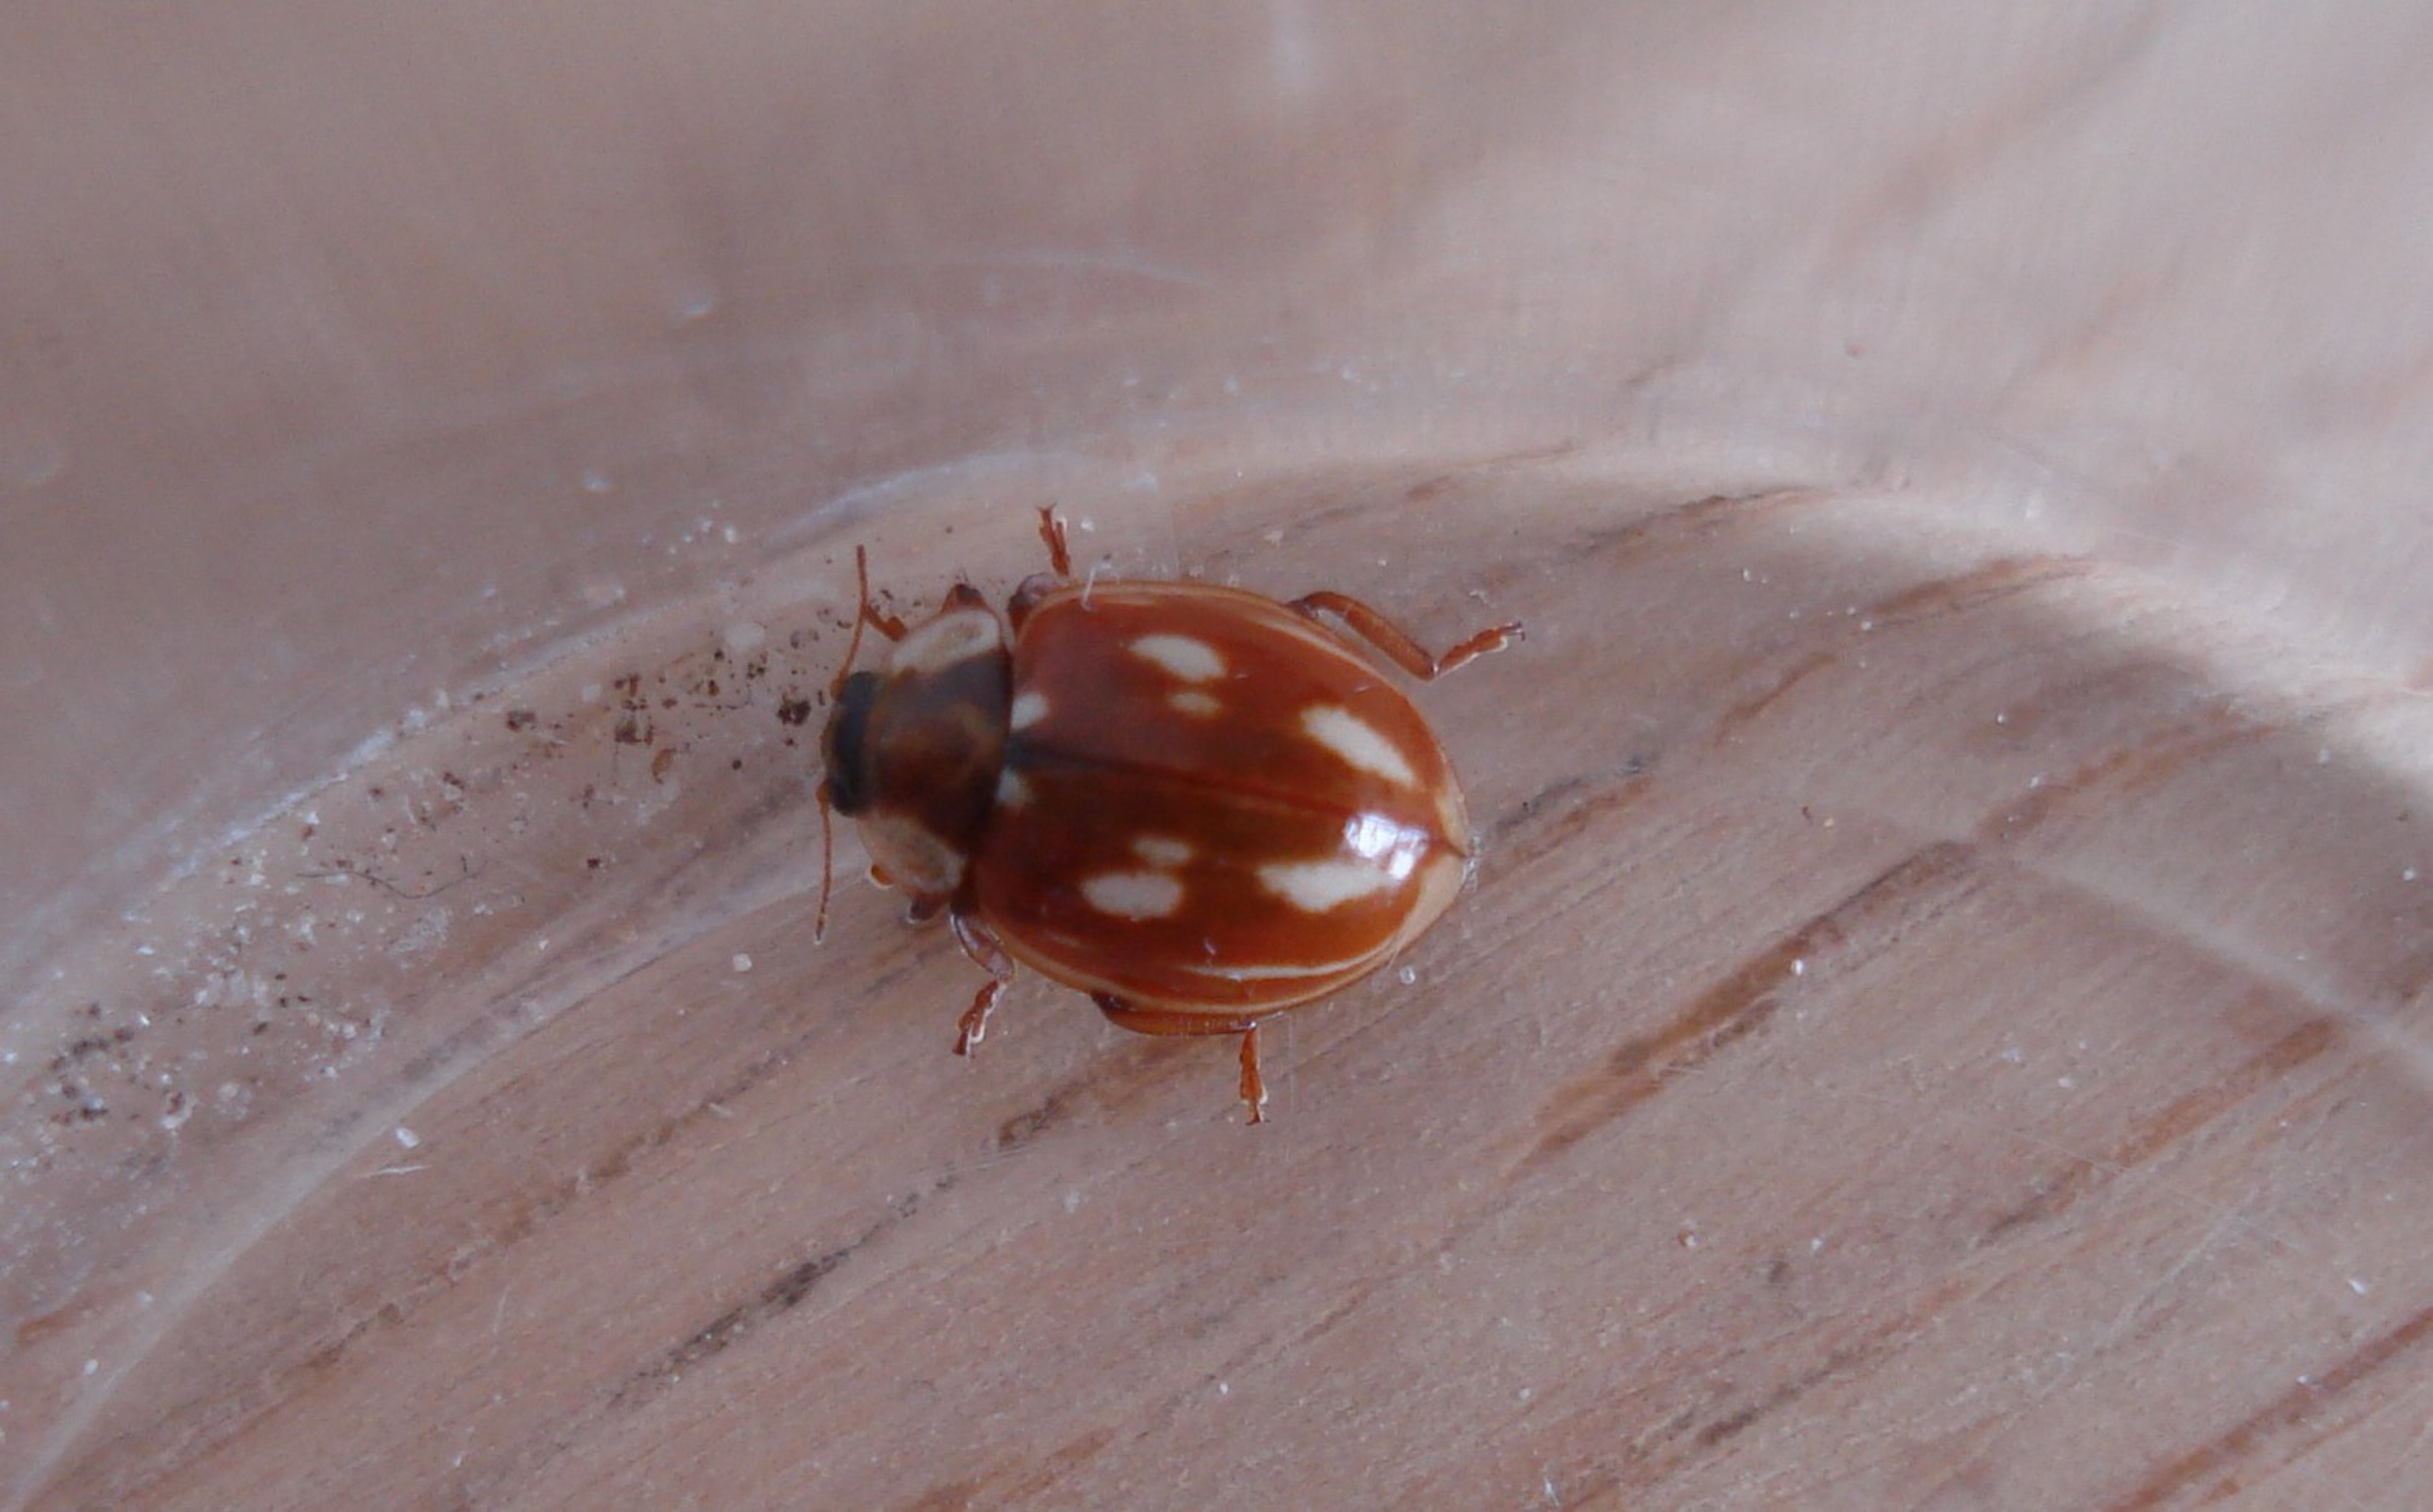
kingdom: Animalia
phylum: Arthropoda
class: Insecta
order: Coleoptera
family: Coccinellidae
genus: Myzia
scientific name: Myzia oblongoguttata
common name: Stribet mariehøne
